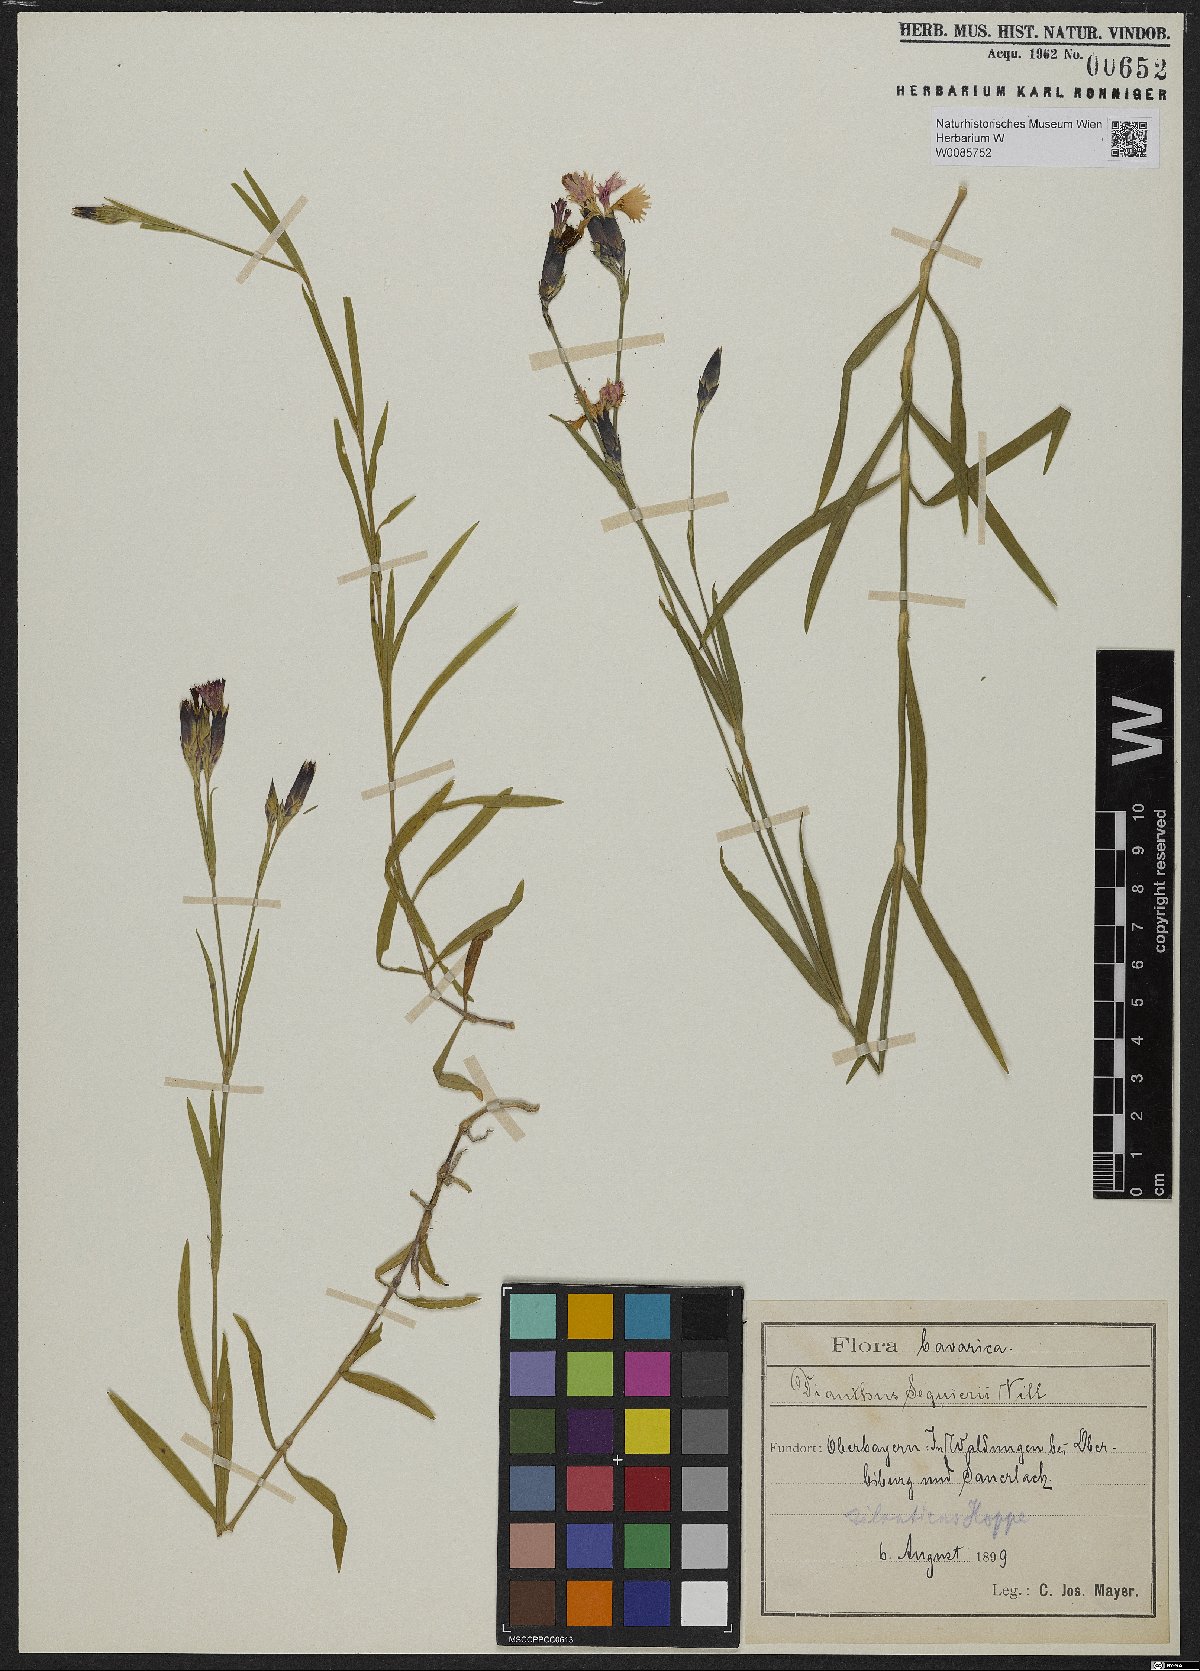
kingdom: Plantae
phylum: Tracheophyta
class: Magnoliopsida
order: Caryophyllales
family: Caryophyllaceae
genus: Dianthus
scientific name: Dianthus seguieri
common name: Ragged pink
